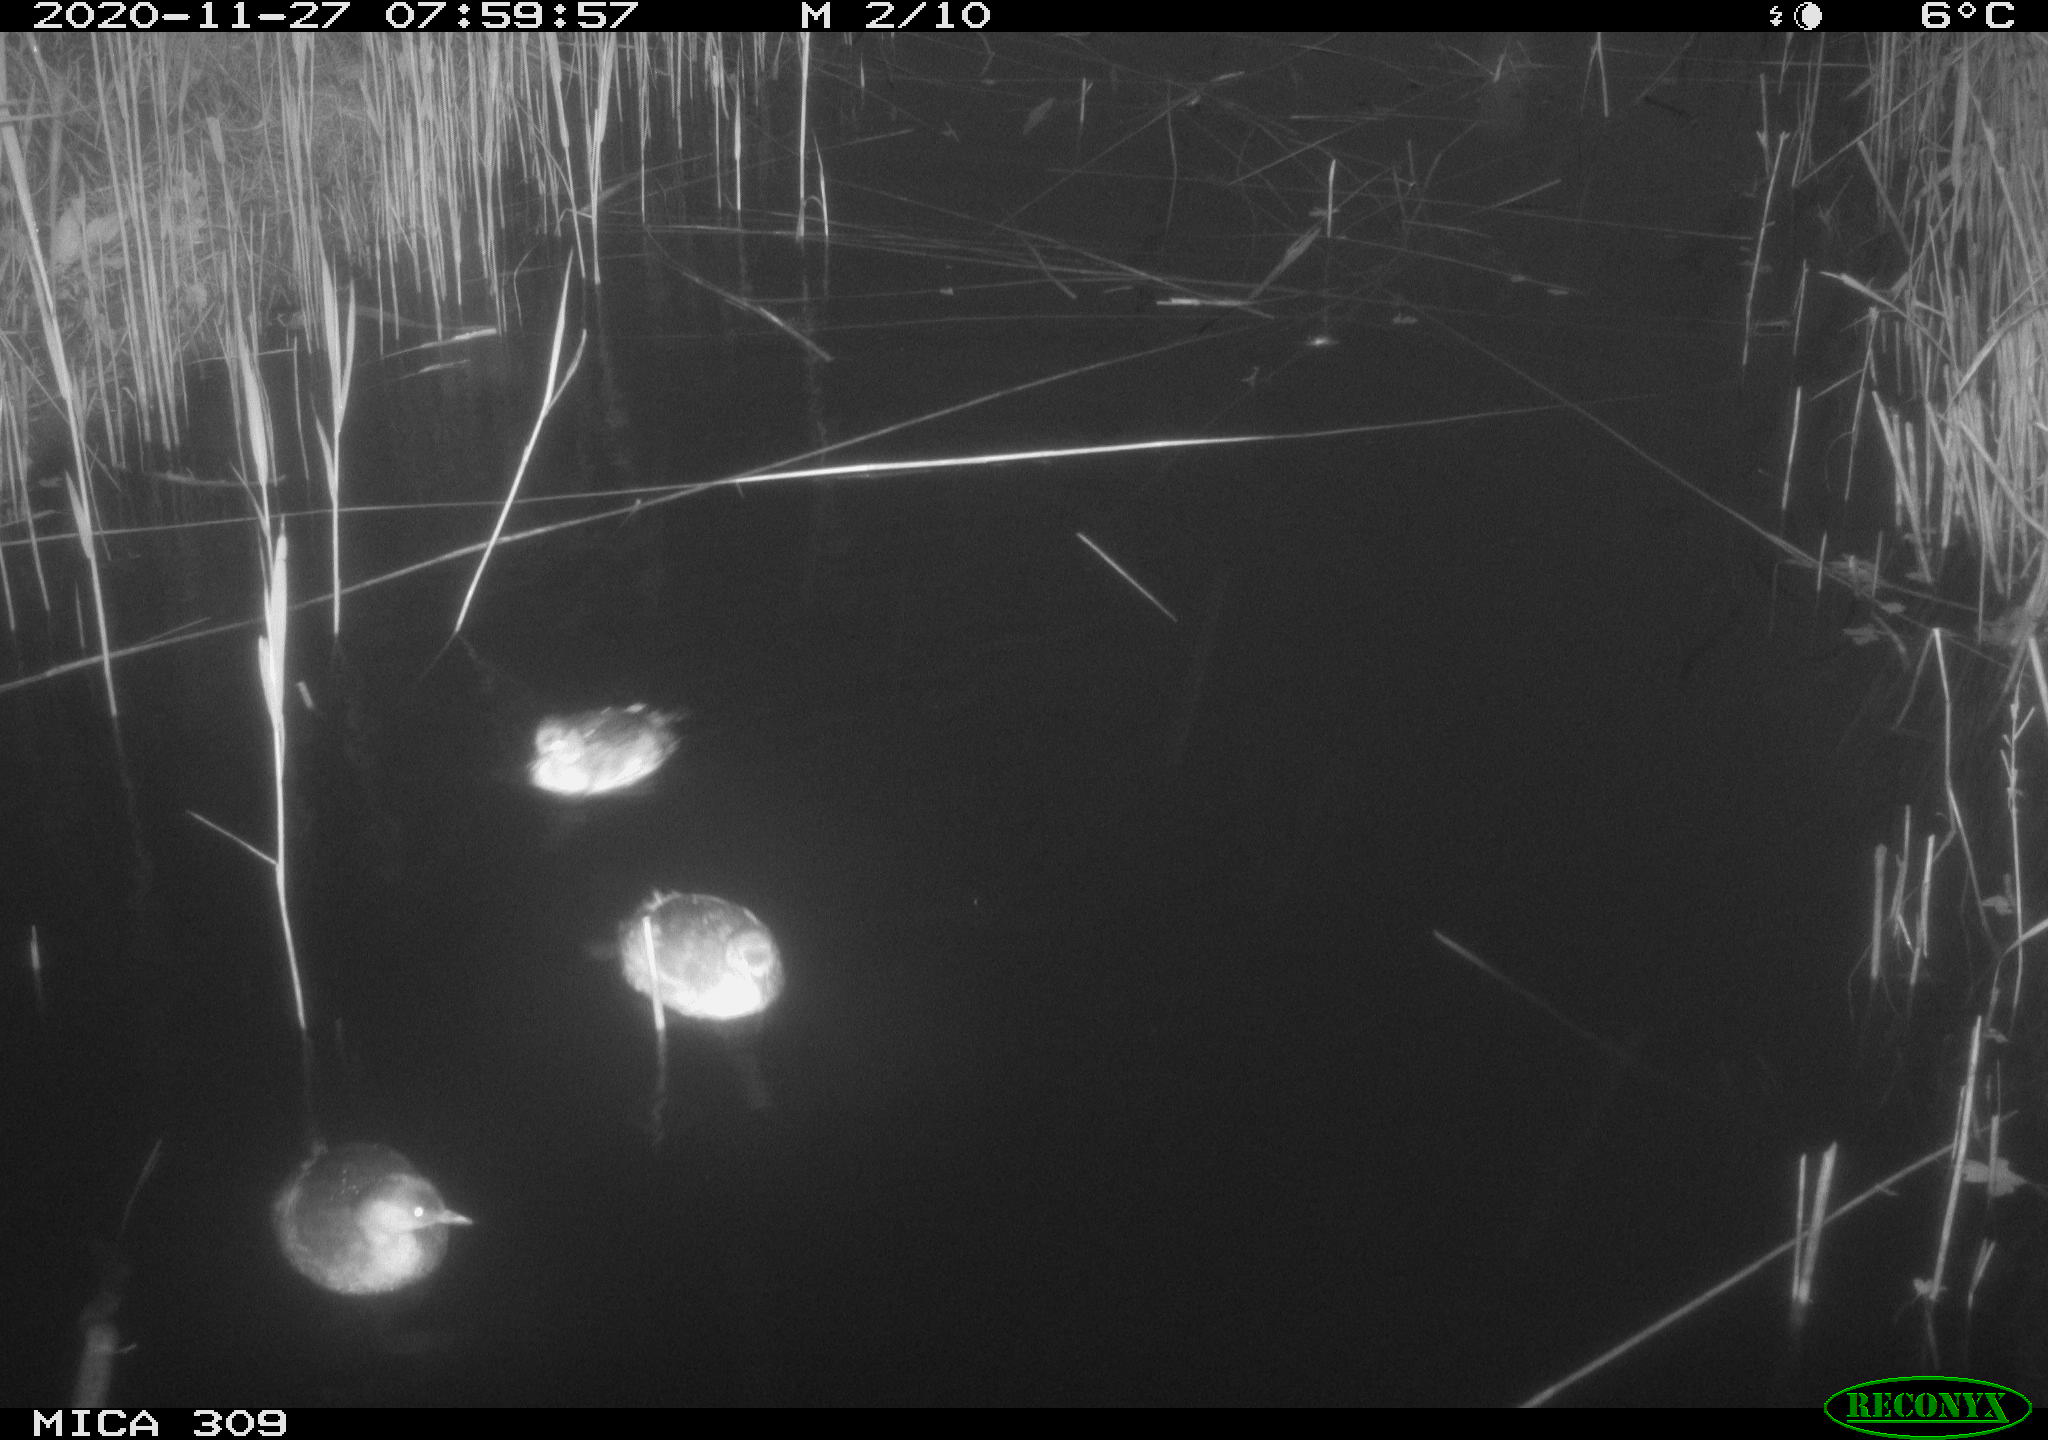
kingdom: Animalia
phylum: Chordata
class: Aves
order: Podicipediformes
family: Podicipedidae
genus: Tachybaptus
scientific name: Tachybaptus ruficollis
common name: Little grebe
